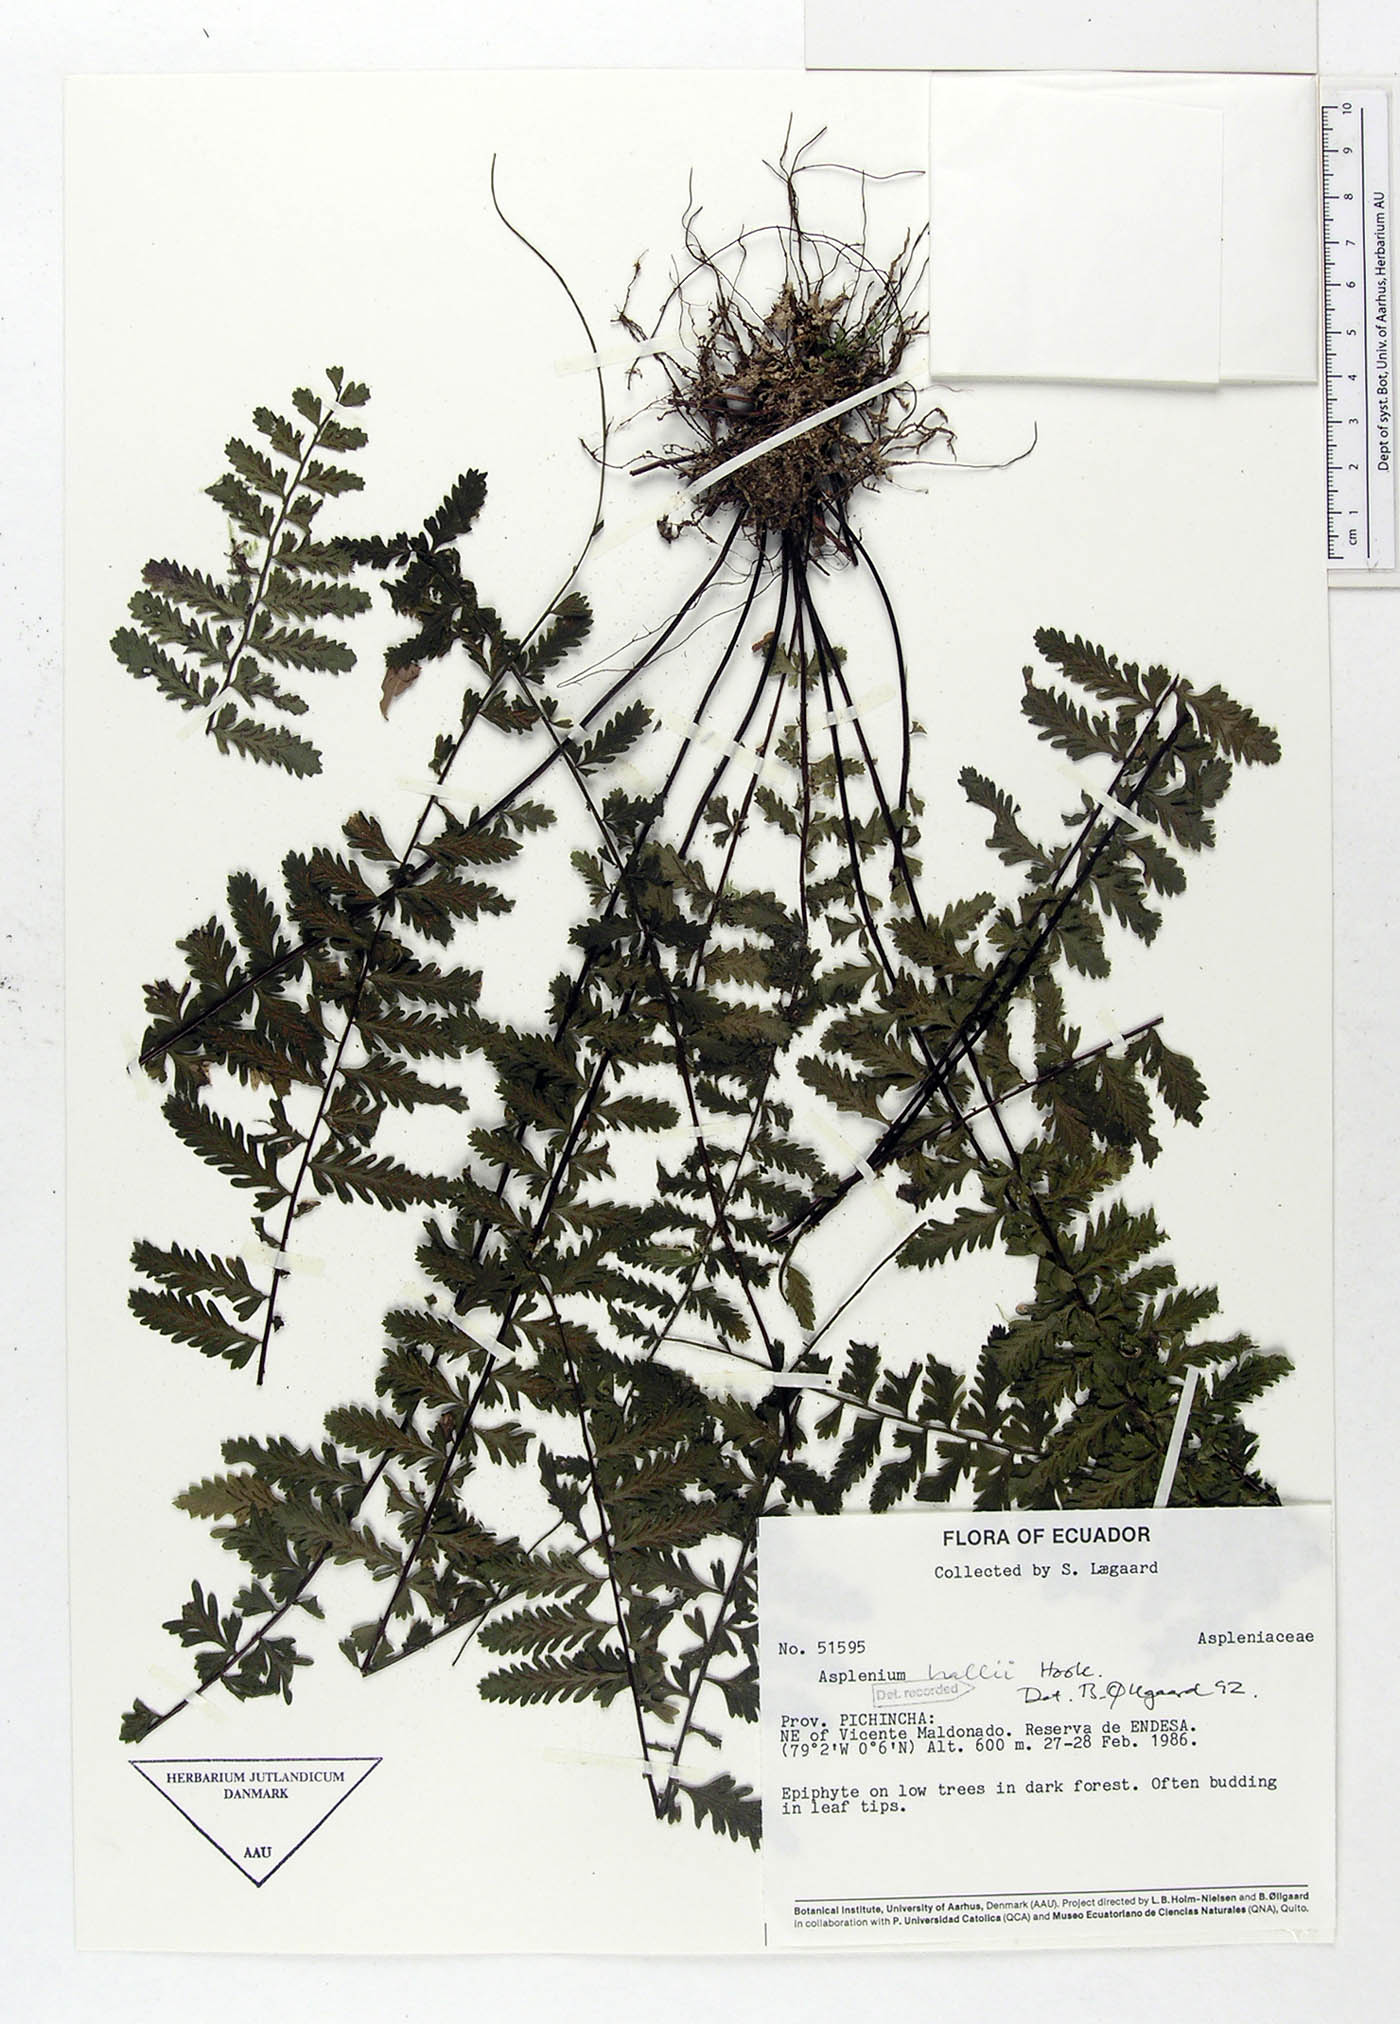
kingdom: Plantae
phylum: Tracheophyta
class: Polypodiopsida
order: Polypodiales
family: Aspleniaceae
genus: Asplenium
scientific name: Asplenium hallii
